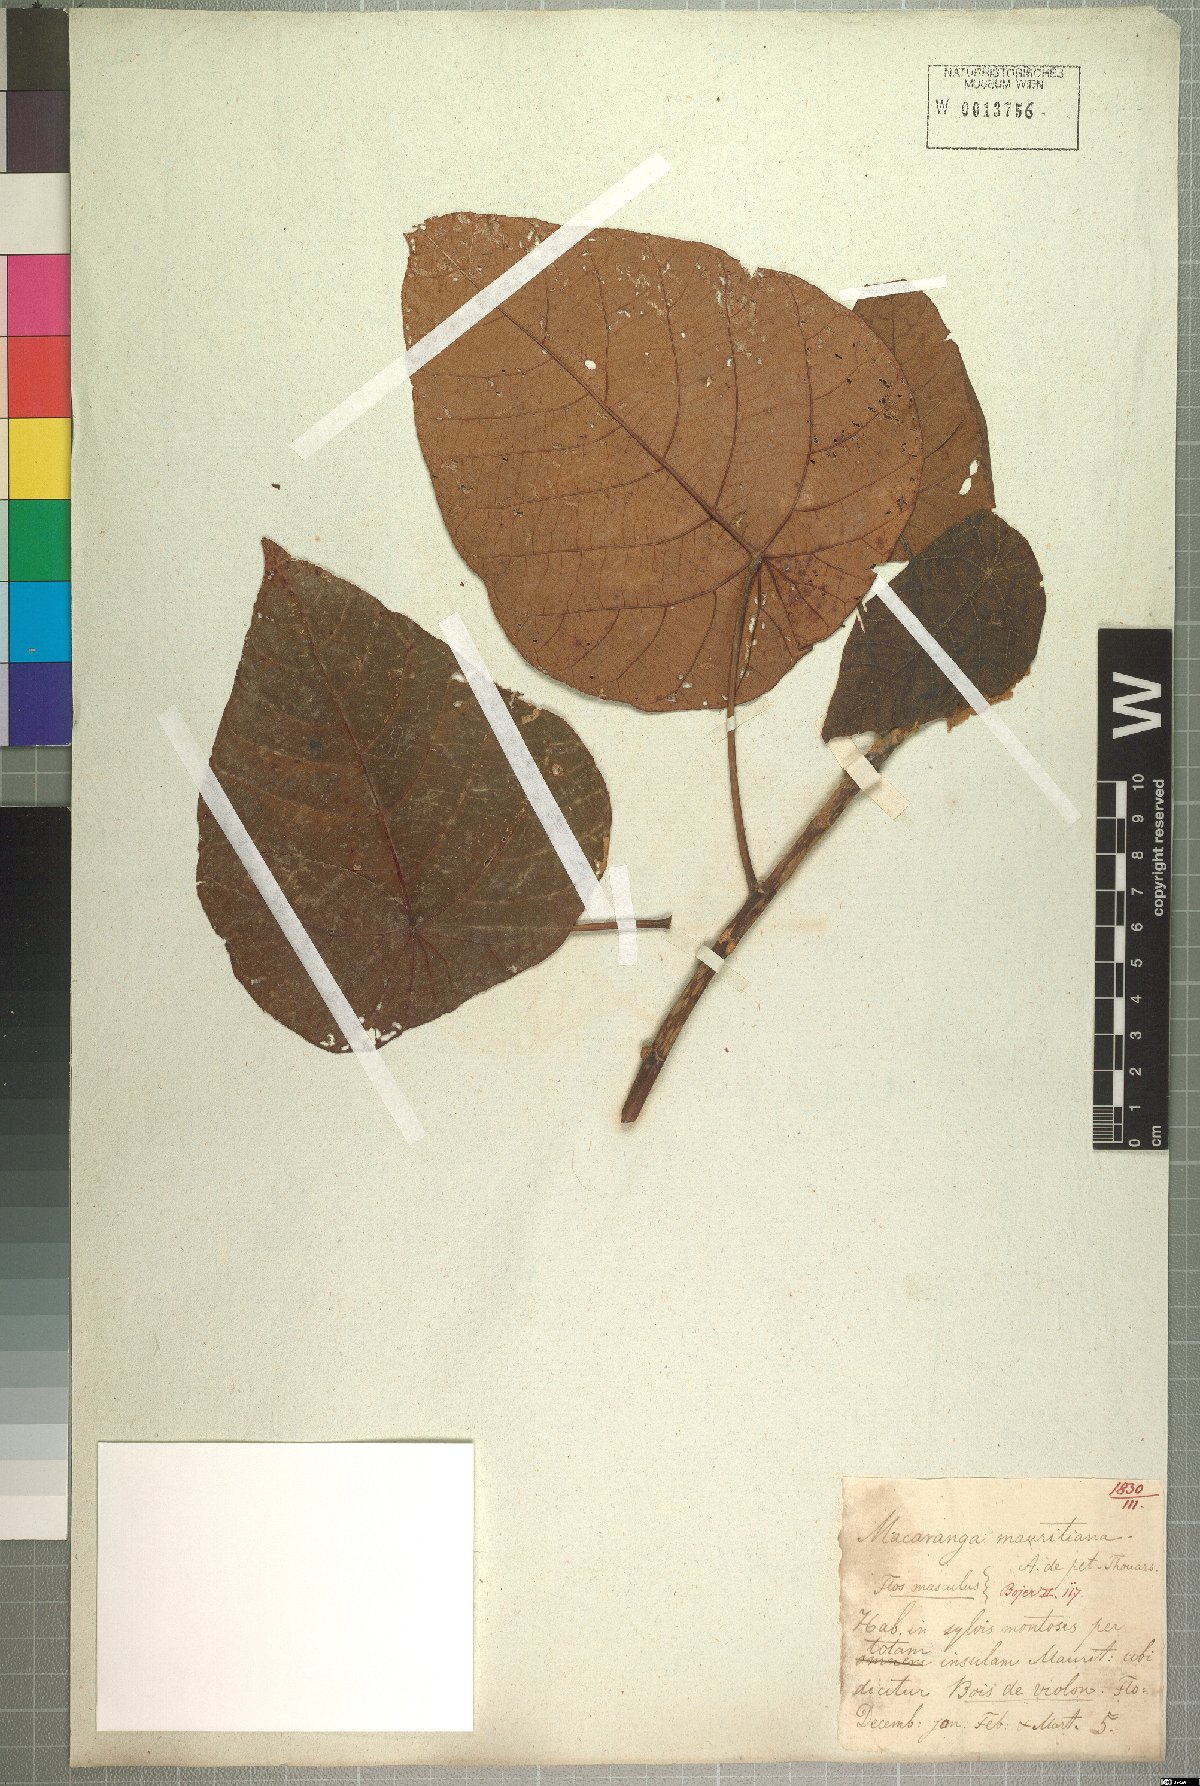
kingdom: Plantae
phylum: Tracheophyta
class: Magnoliopsida
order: Malpighiales
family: Euphorbiaceae
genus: Macaranga
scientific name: Macaranga mauritiana
